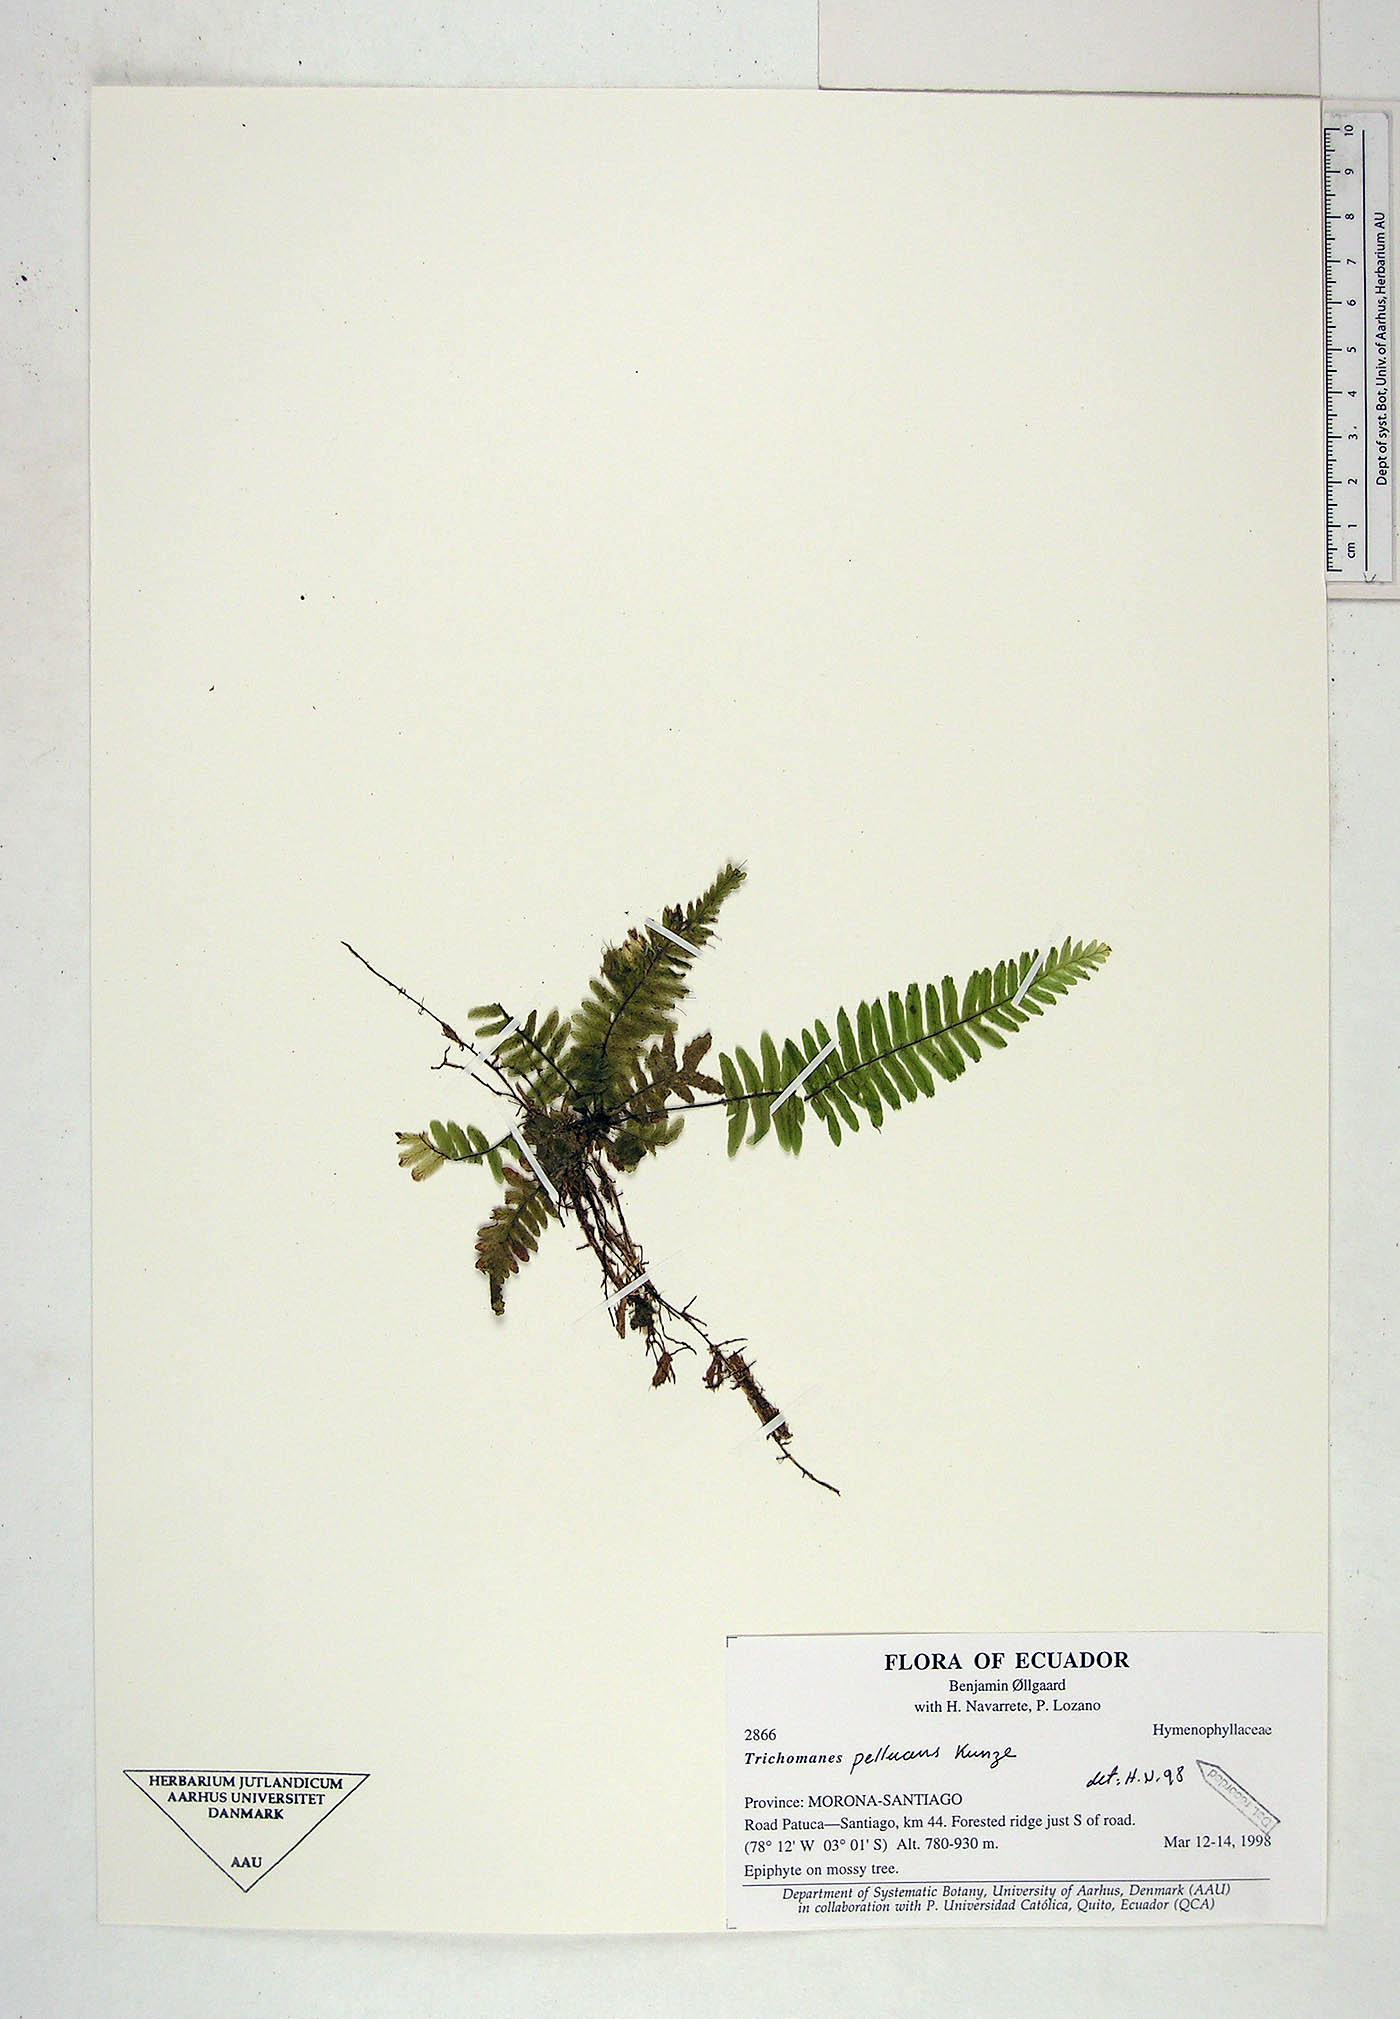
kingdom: Plantae
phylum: Tracheophyta
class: Polypodiopsida
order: Hymenophyllales
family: Hymenophyllaceae
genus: Trichomanes
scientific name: Trichomanes pellucens
